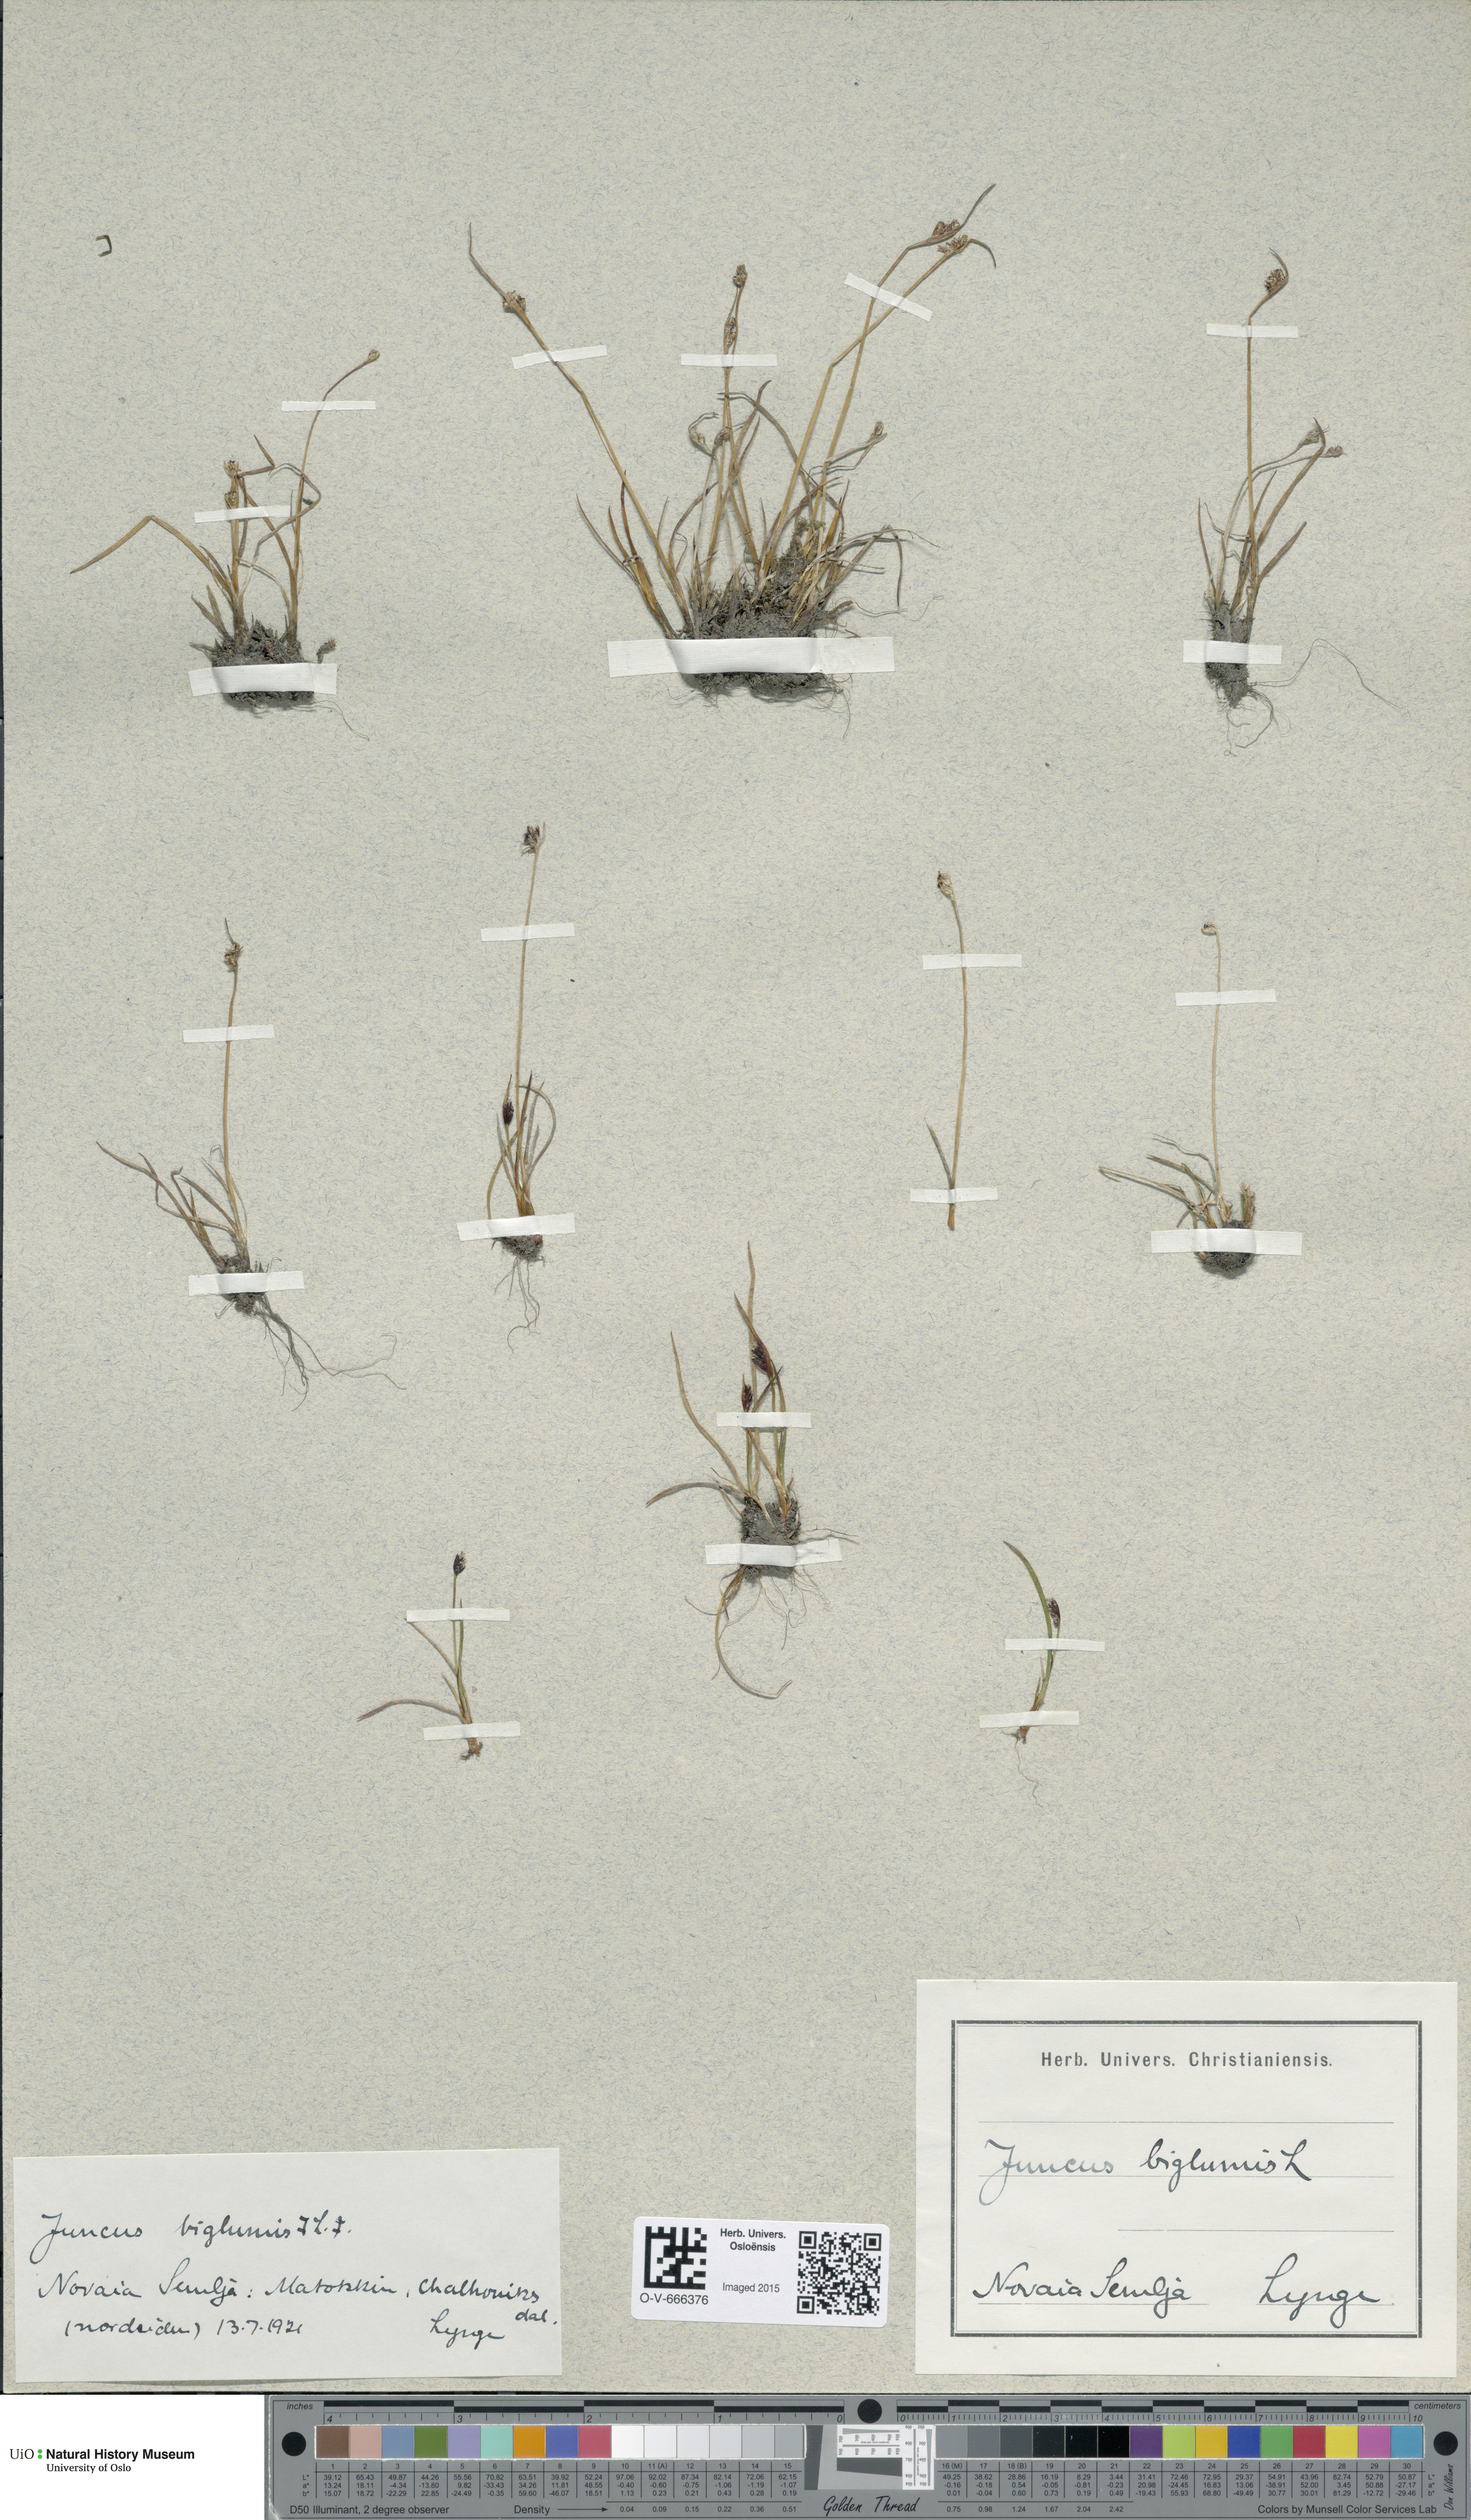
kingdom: Plantae
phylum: Tracheophyta
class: Liliopsida
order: Poales
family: Juncaceae
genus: Juncus
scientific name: Juncus biglumis
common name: Two-flowered rush
